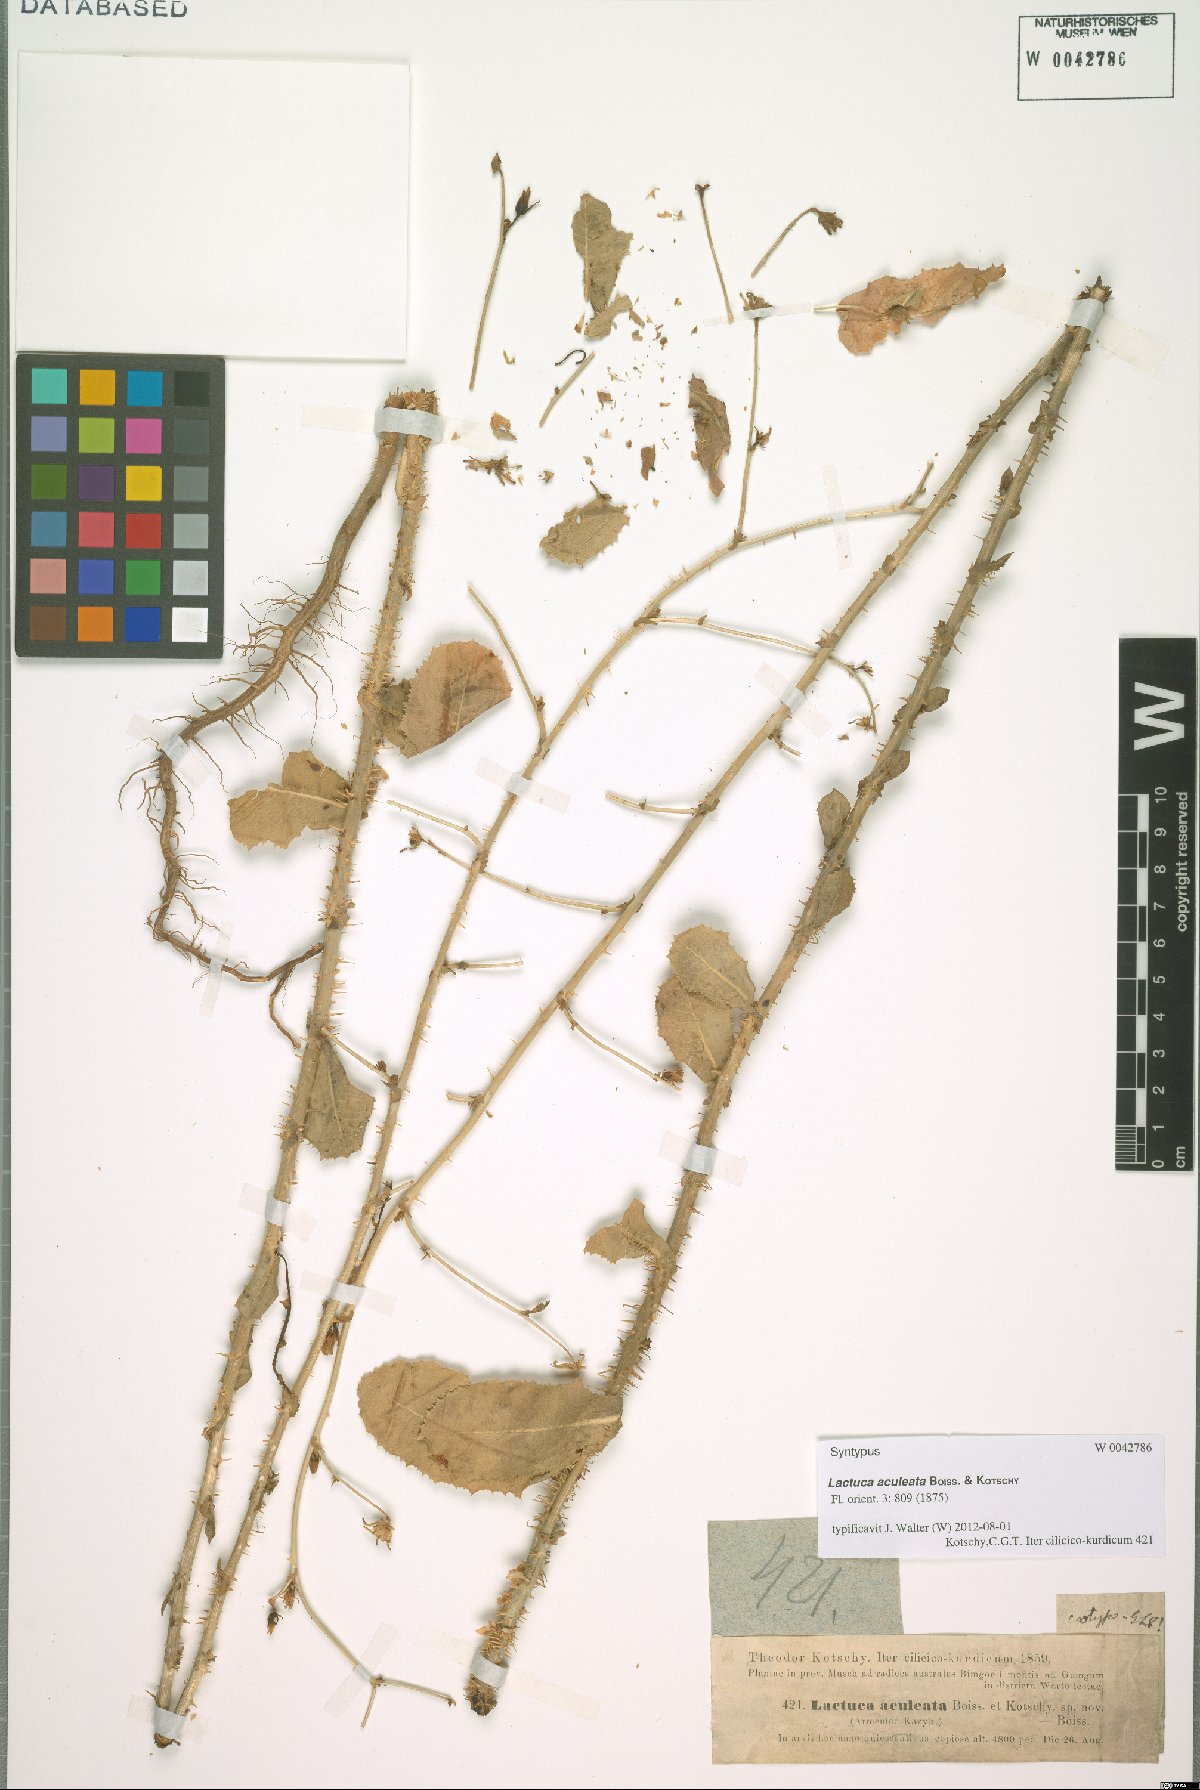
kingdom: Plantae
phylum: Tracheophyta
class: Magnoliopsida
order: Asterales
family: Asteraceae
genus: Lactuca
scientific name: Lactuca aculeata
